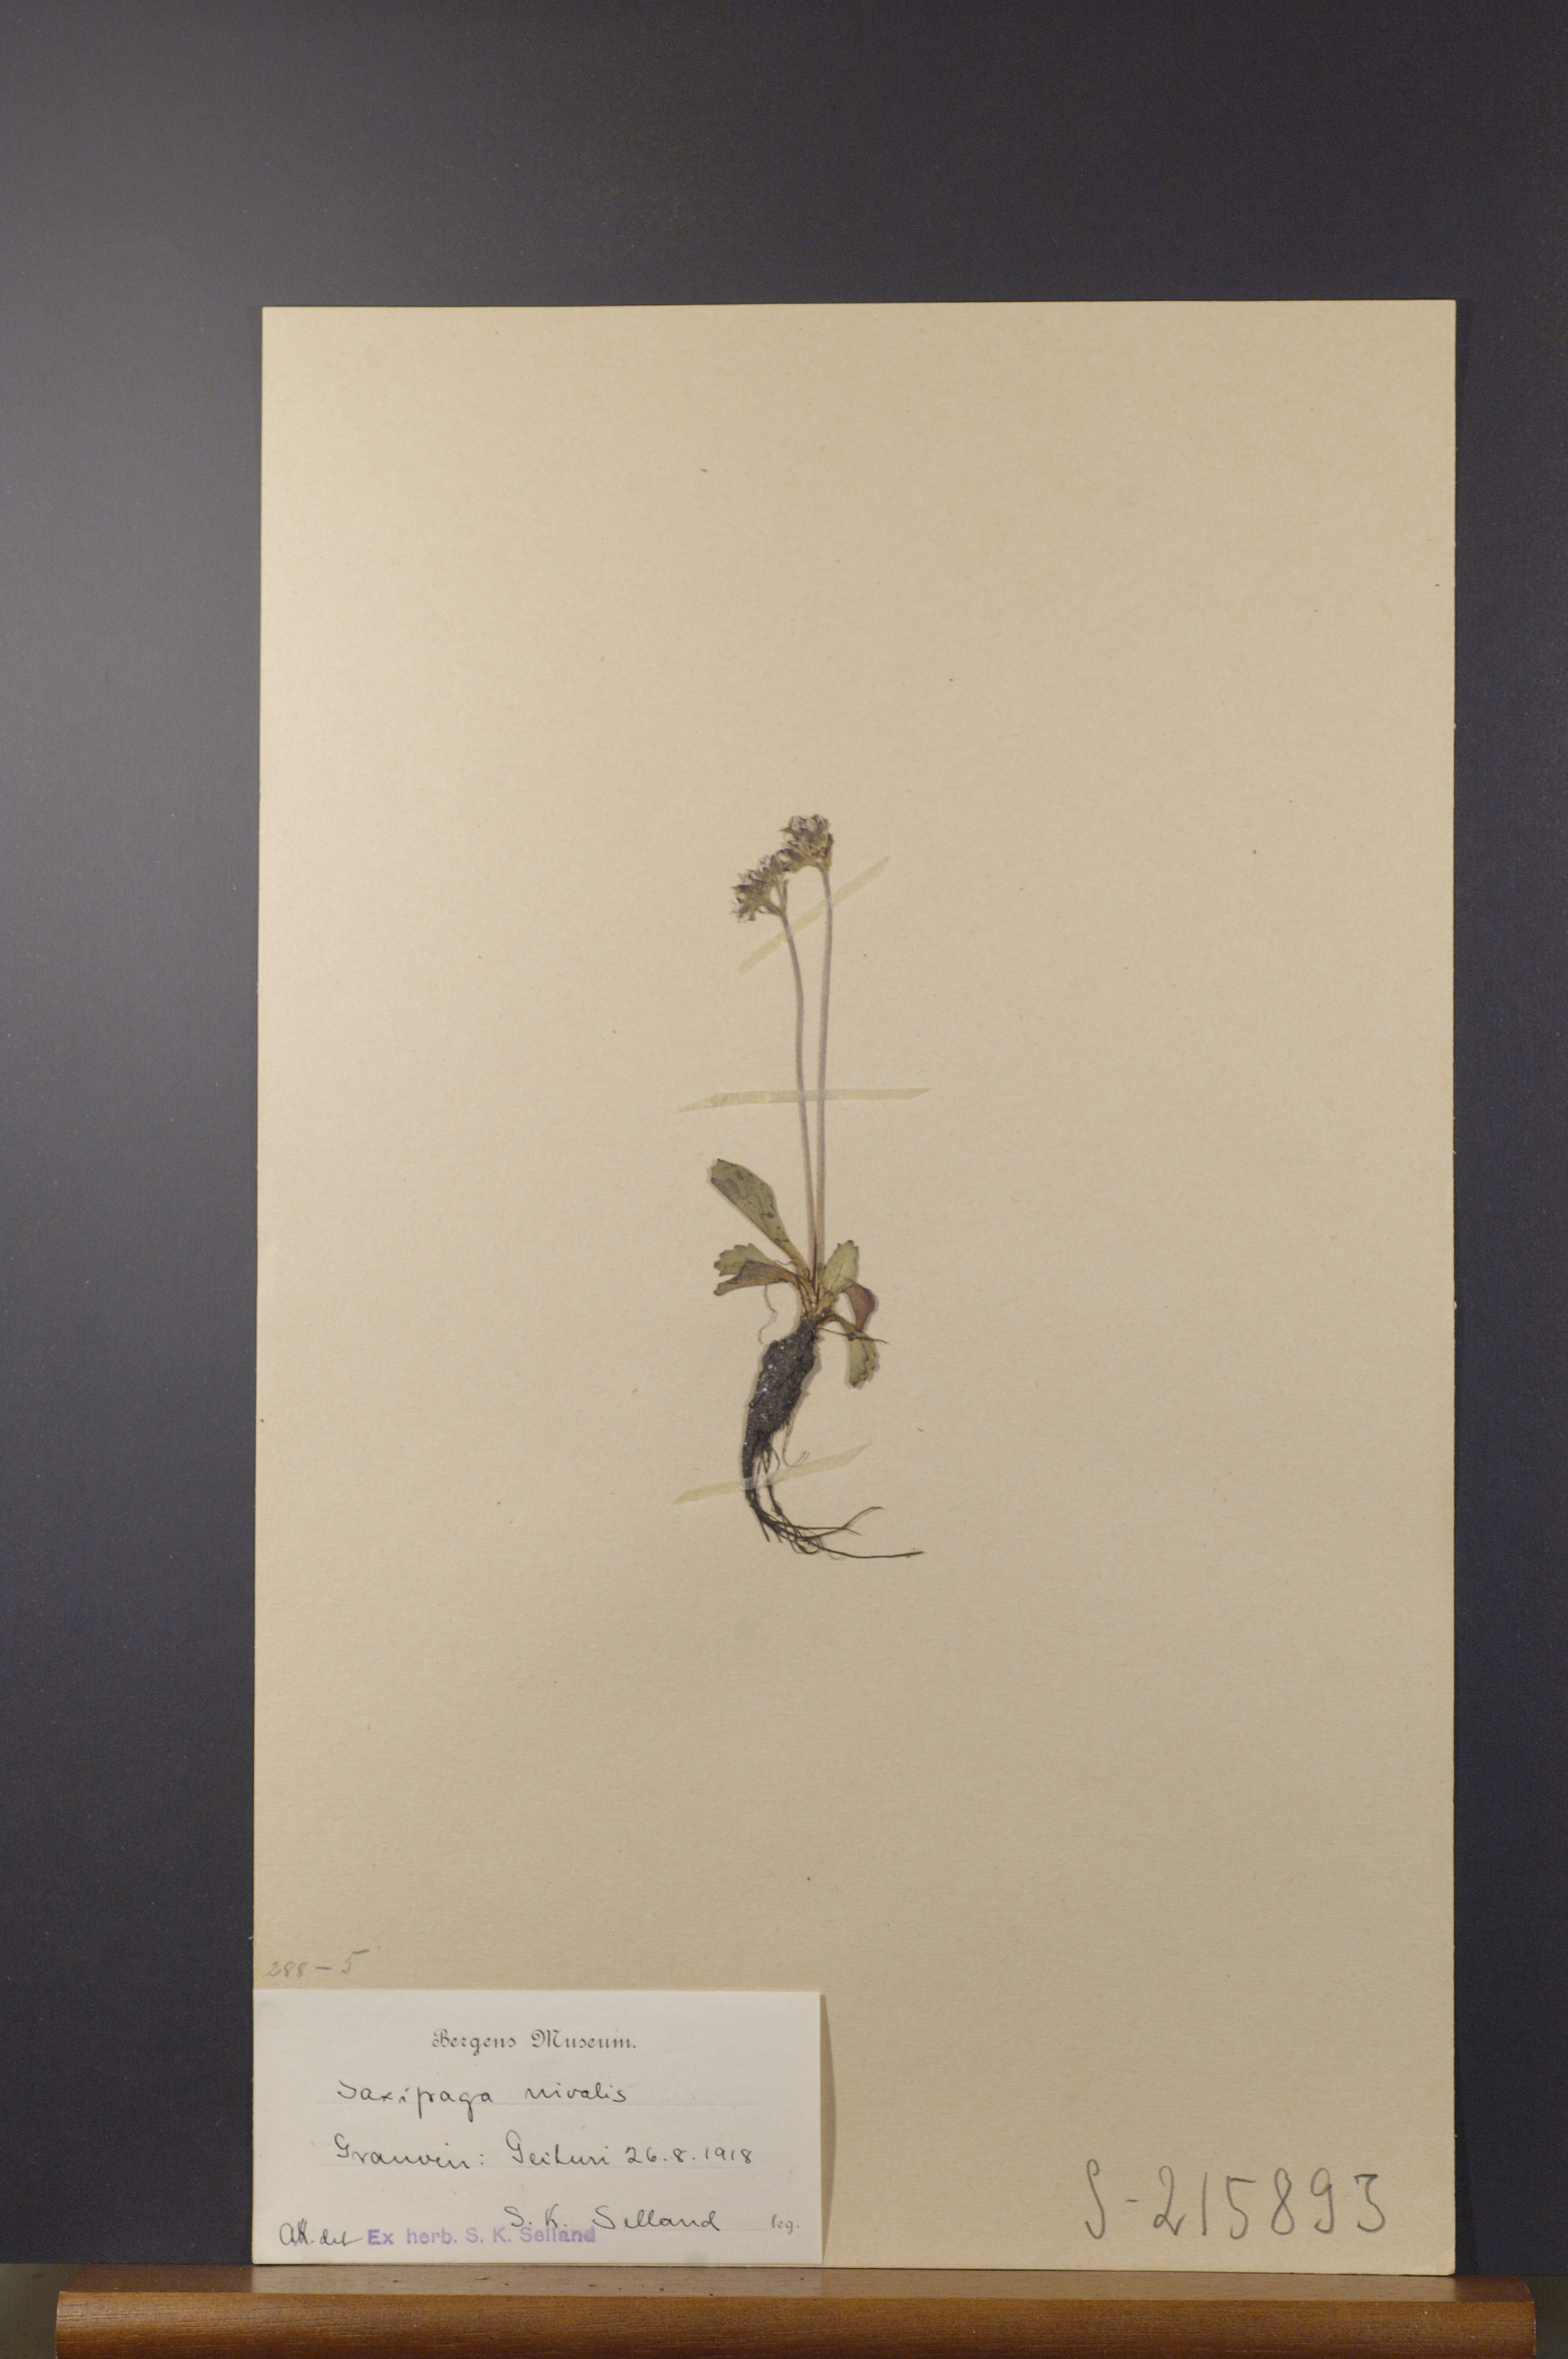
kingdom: Plantae
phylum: Tracheophyta
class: Magnoliopsida
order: Saxifragales
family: Saxifragaceae
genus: Micranthes
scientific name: Micranthes nivalis
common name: Alpine saxifrage
